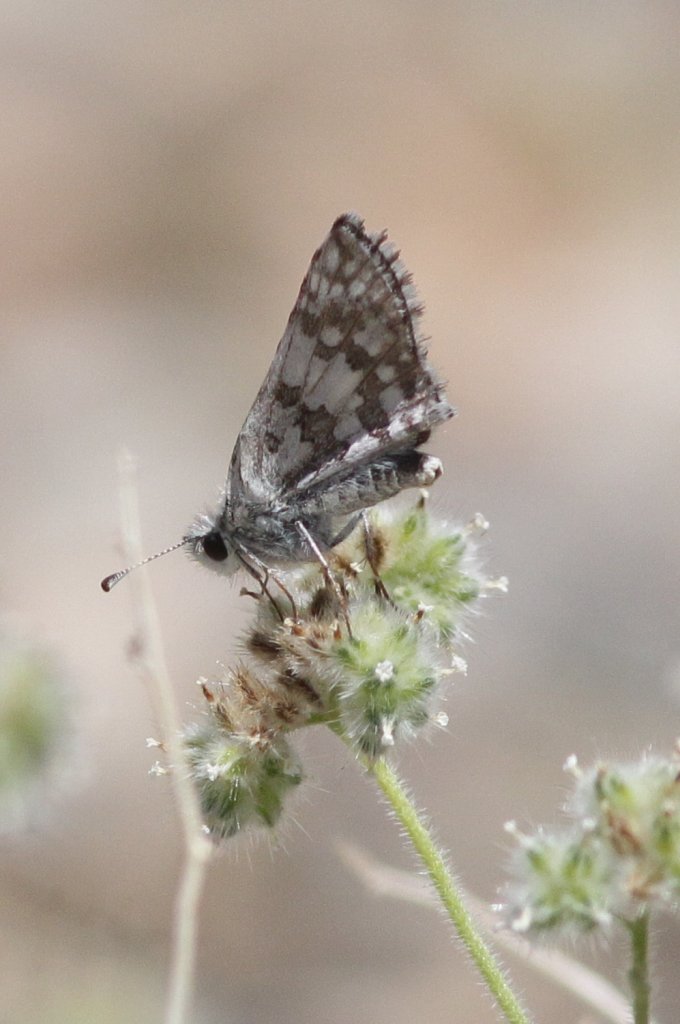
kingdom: Animalia
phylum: Arthropoda
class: Insecta
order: Lepidoptera
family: Hesperiidae
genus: Pyrgus
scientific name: Pyrgus
